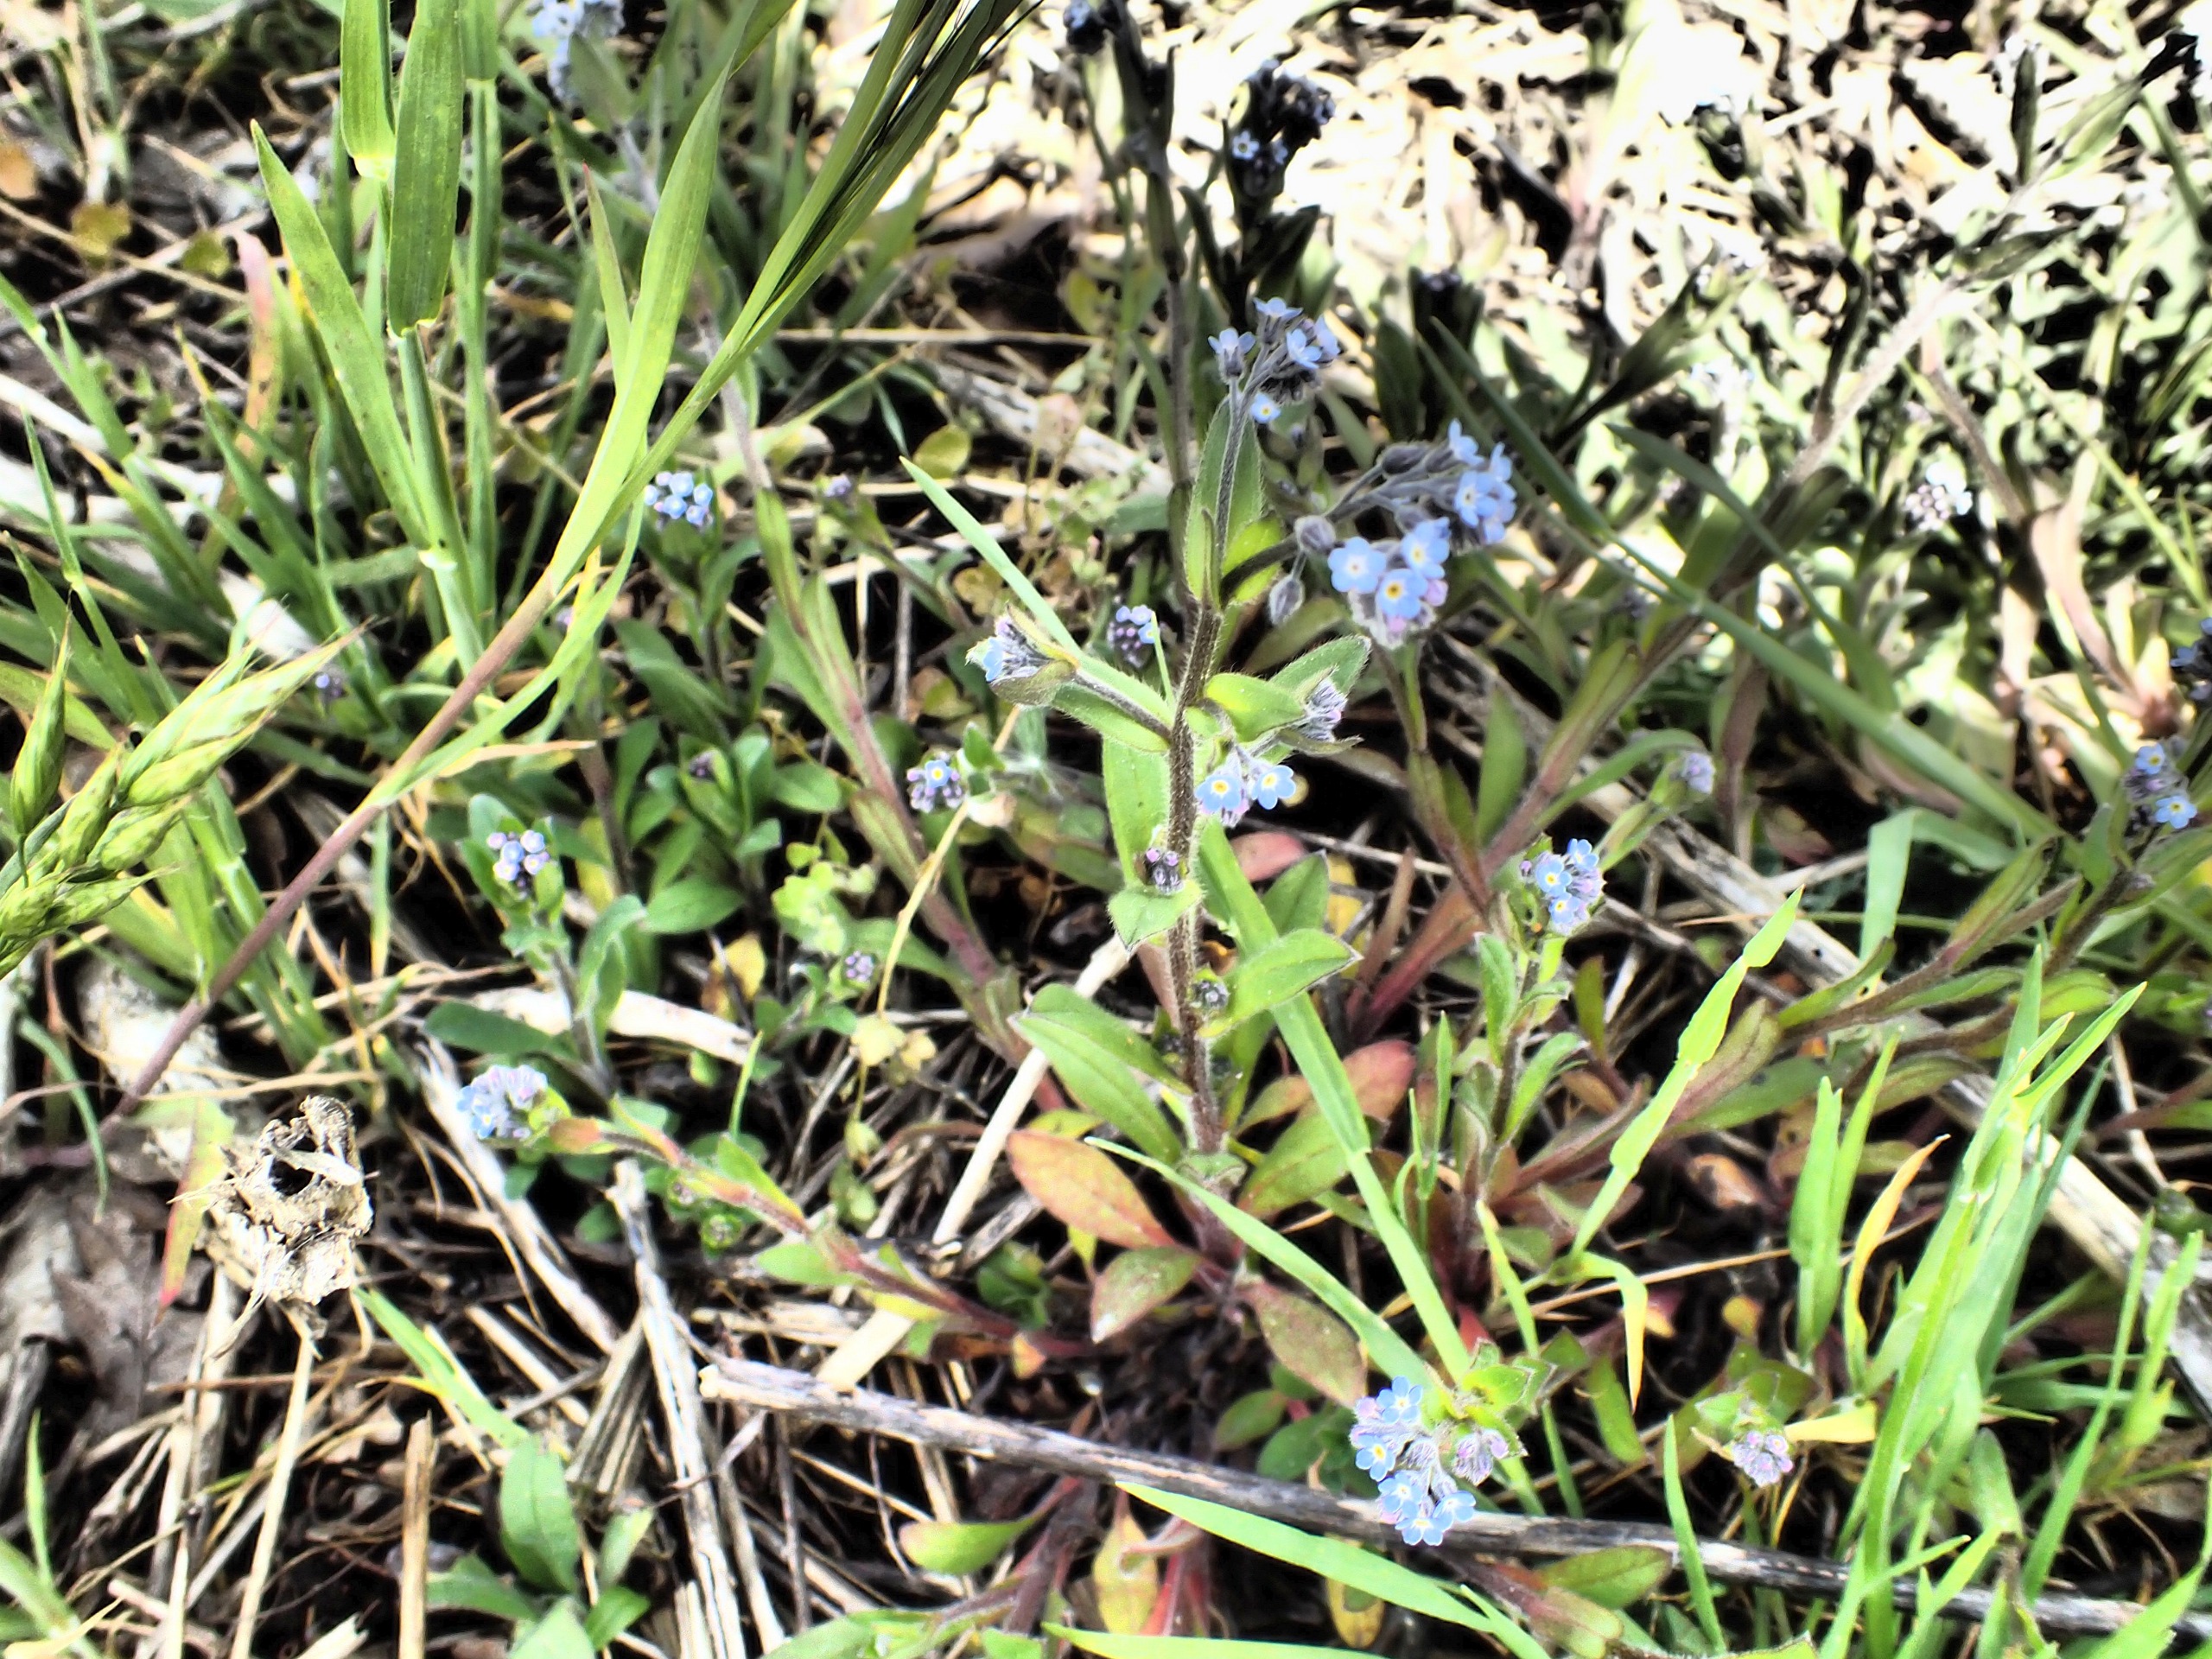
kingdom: Plantae
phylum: Tracheophyta
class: Magnoliopsida
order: Boraginales
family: Boraginaceae
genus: Myosotis
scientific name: Myosotis arvensis
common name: Mark-forglemmigej
